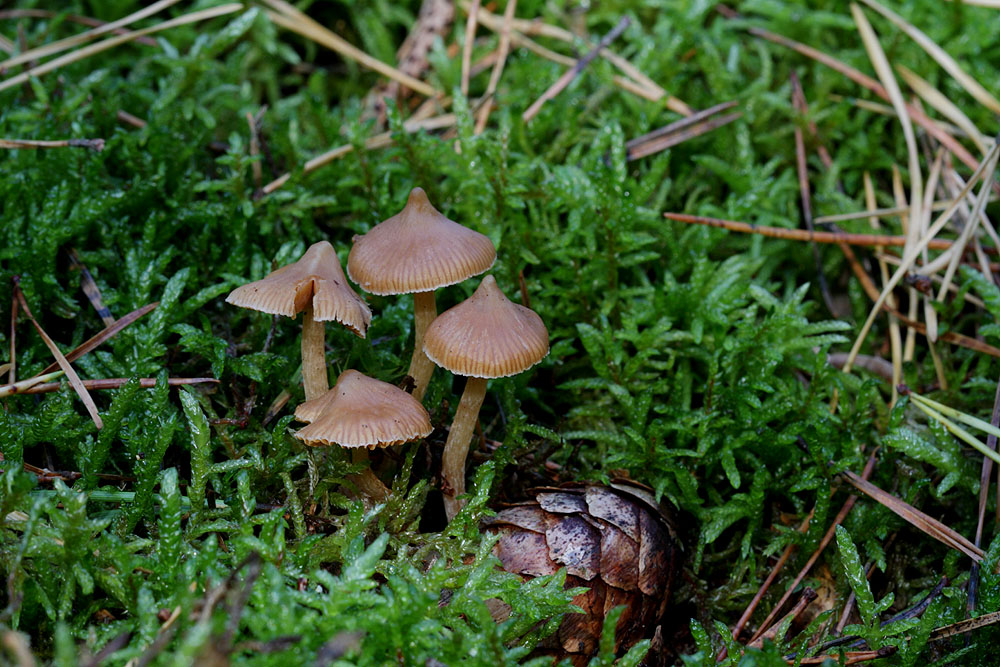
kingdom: Fungi
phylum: Basidiomycota
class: Agaricomycetes
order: Agaricales
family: Cortinariaceae
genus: Cortinarius
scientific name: Cortinarius acutus
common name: spids slørhat
